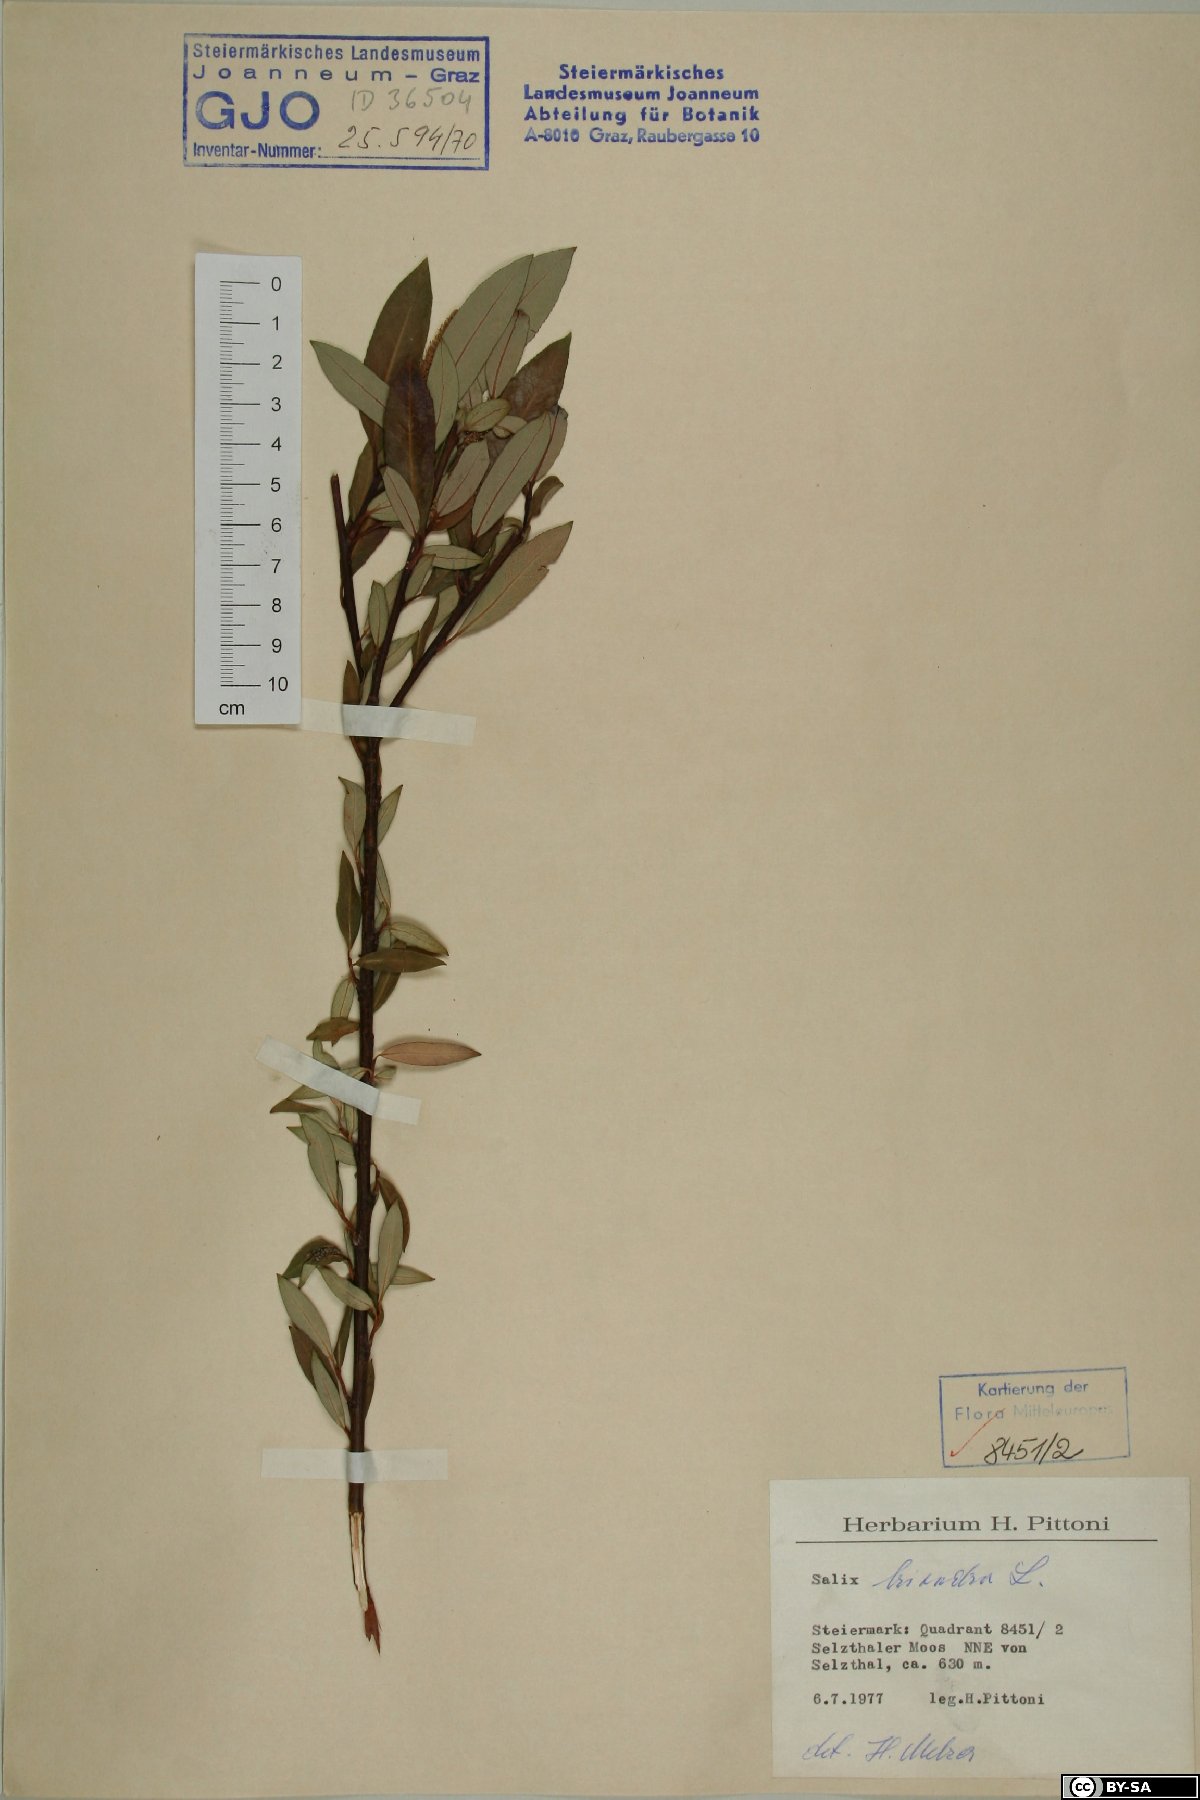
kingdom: Plantae
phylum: Tracheophyta
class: Magnoliopsida
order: Malpighiales
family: Salicaceae
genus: Salix
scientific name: Salix triandra
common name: Almond willow
